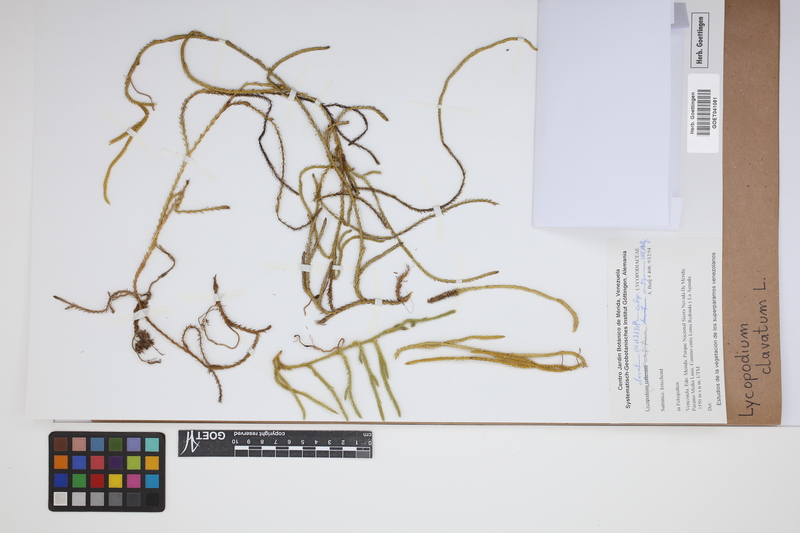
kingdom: Plantae
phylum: Tracheophyta
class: Lycopodiopsida
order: Lycopodiales
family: Lycopodiaceae
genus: Lycopodium
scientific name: Lycopodium clavatum
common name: Stag's-horn clubmoss
